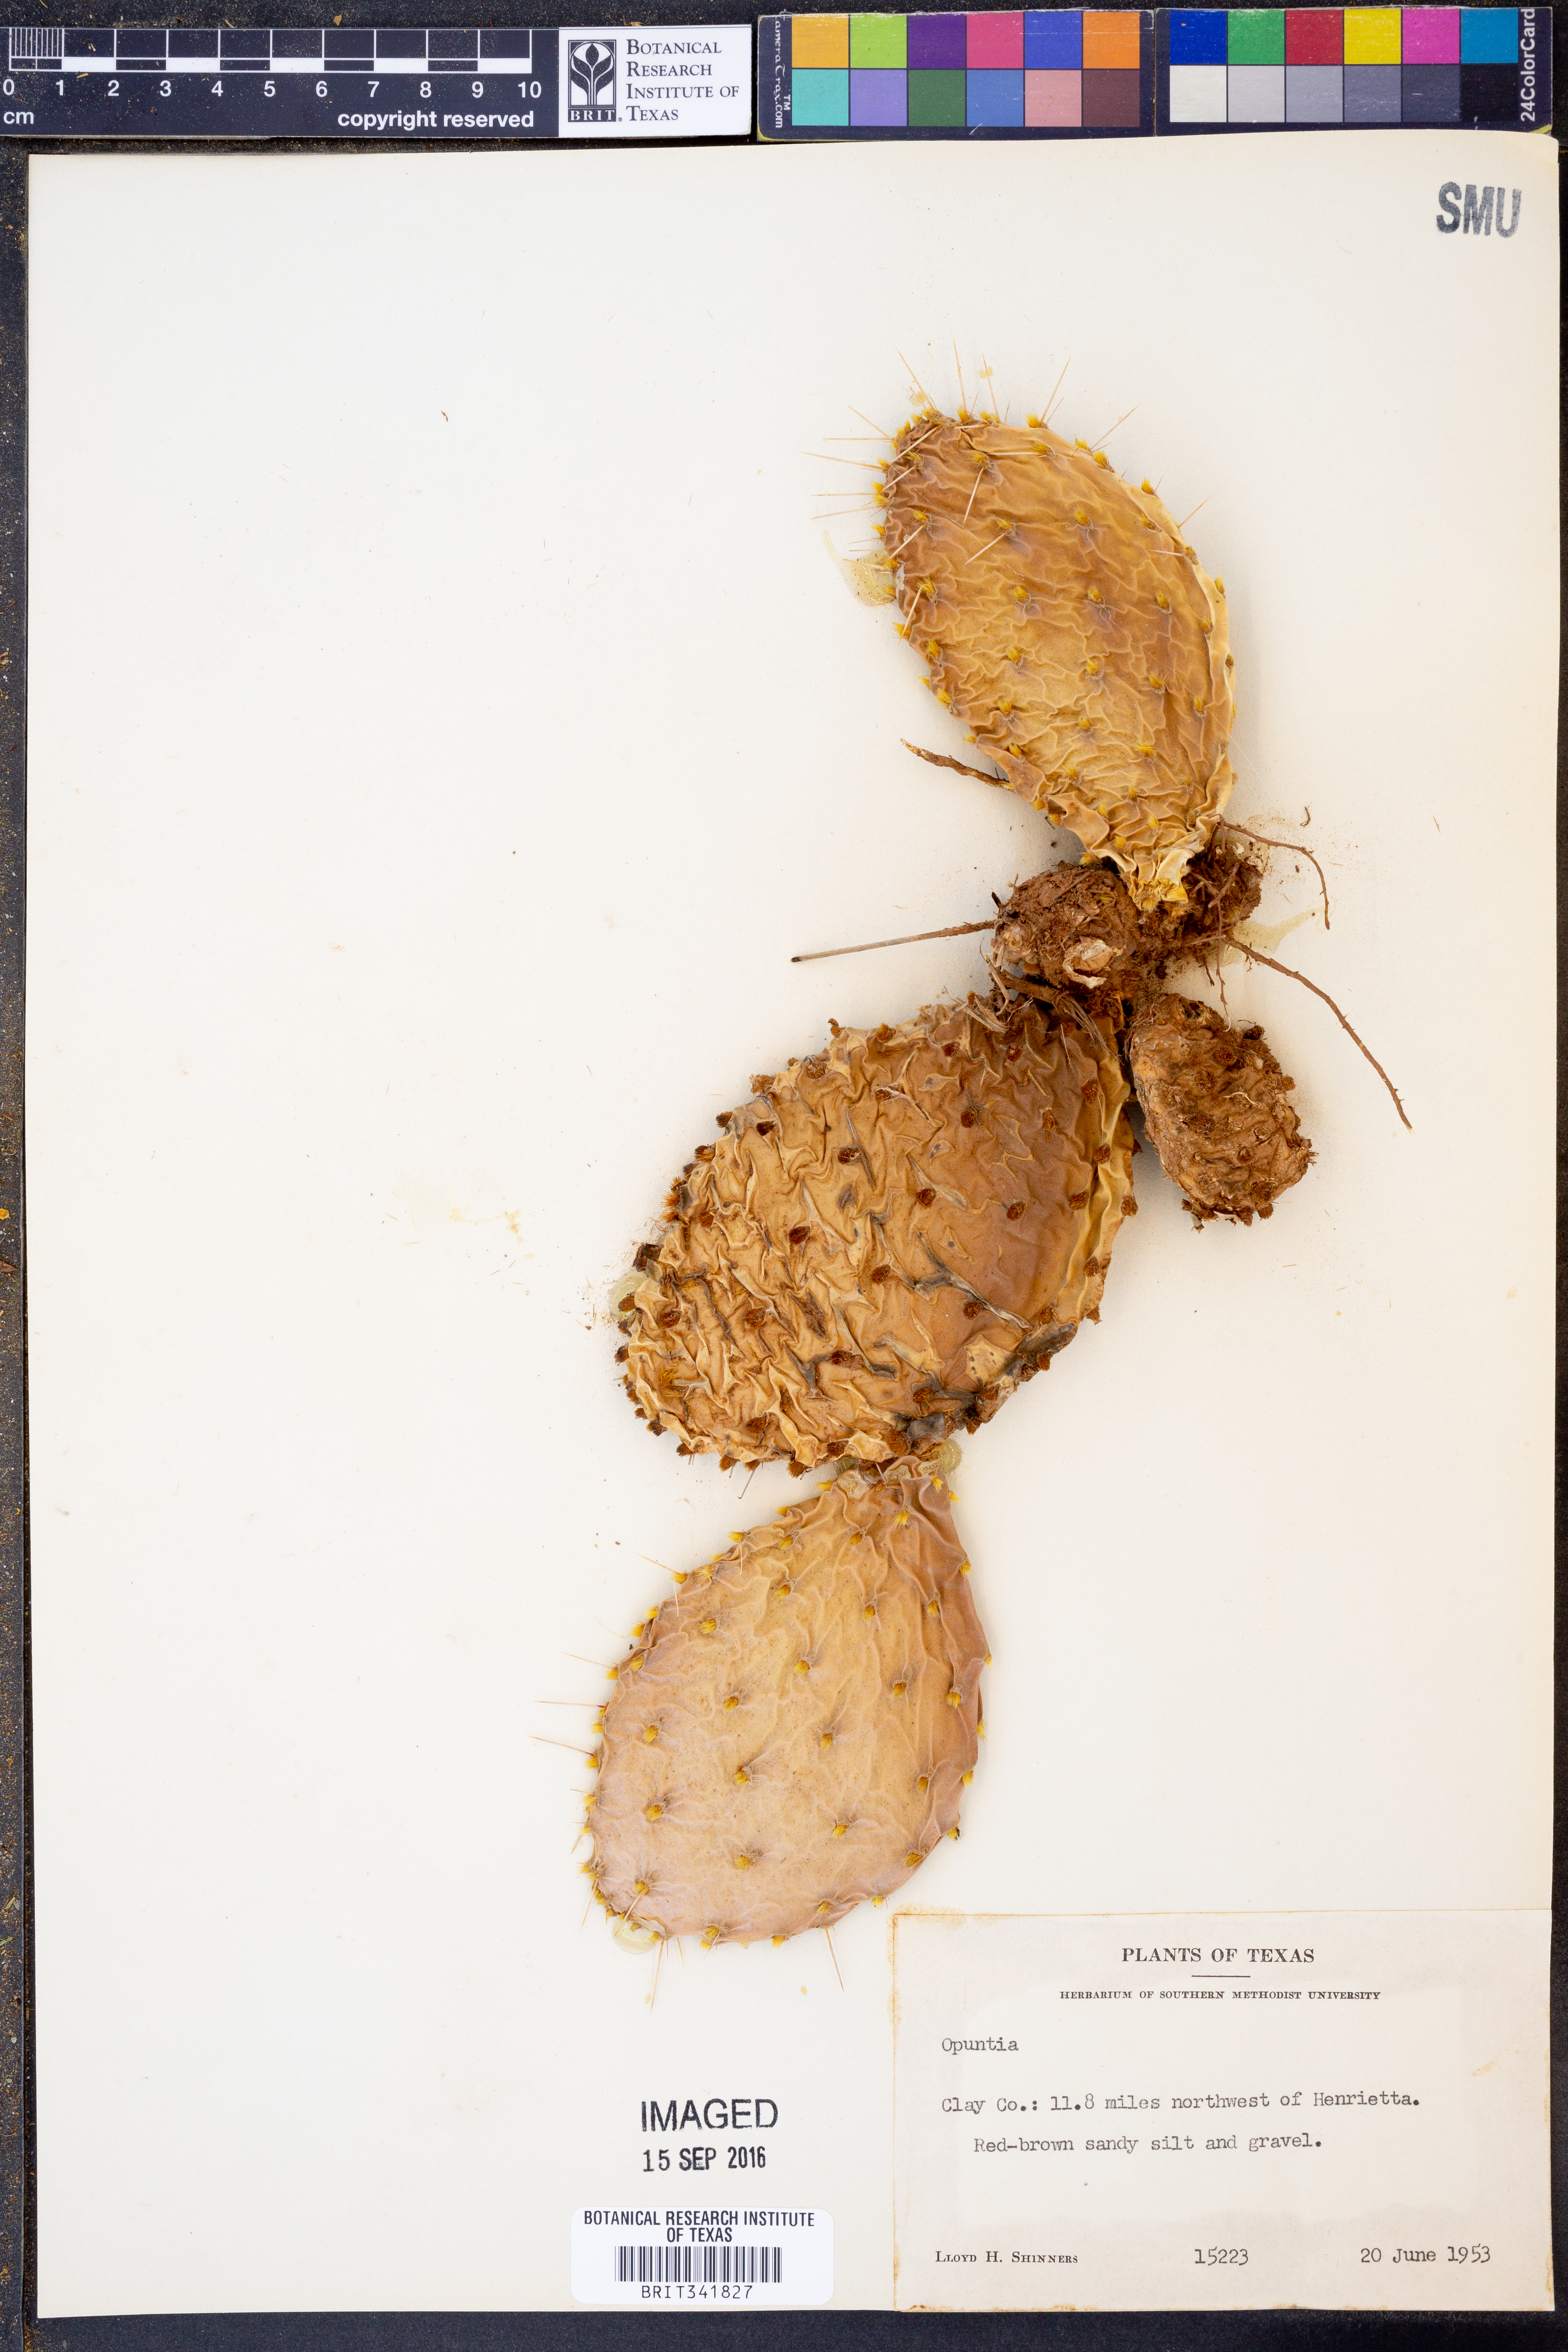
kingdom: Plantae
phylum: Tracheophyta
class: Magnoliopsida
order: Caryophyllales
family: Cactaceae
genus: Opuntia
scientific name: Opuntia
